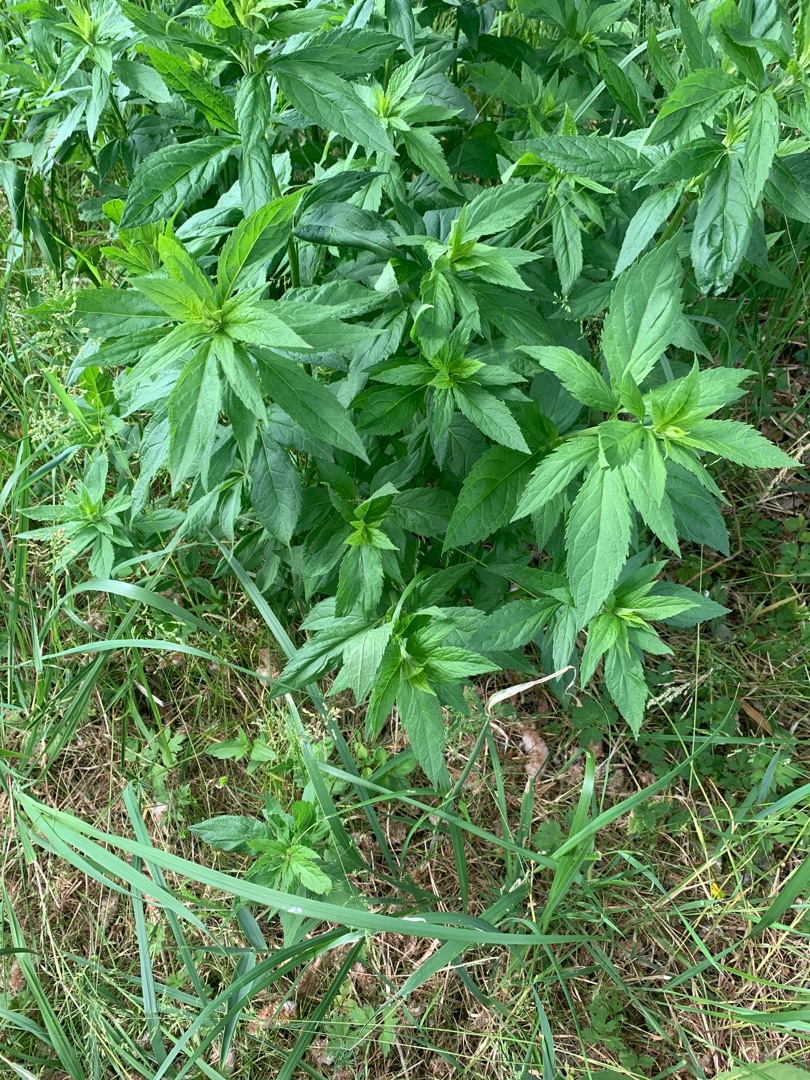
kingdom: Plantae
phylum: Tracheophyta
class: Magnoliopsida
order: Asterales
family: Asteraceae
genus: Eupatorium
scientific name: Eupatorium cannabinum
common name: Hjortetrøst
